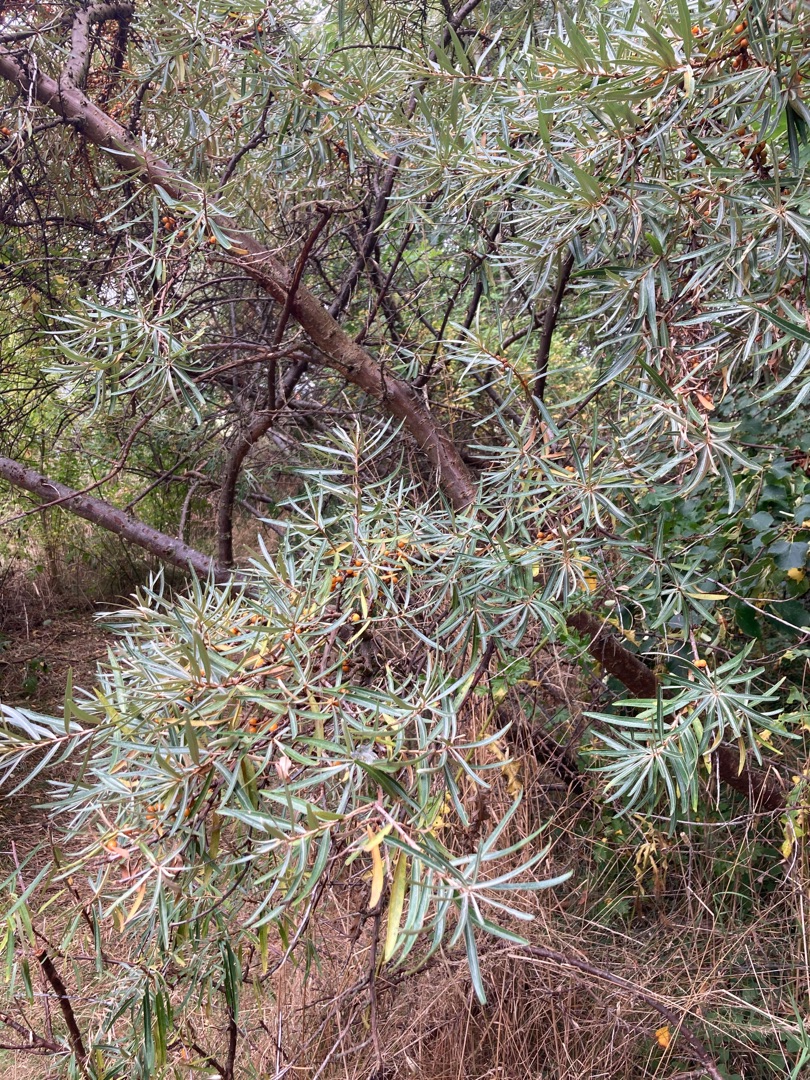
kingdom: Plantae
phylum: Tracheophyta
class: Magnoliopsida
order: Rosales
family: Elaeagnaceae
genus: Hippophae
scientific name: Hippophae rhamnoides
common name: Havtorn
